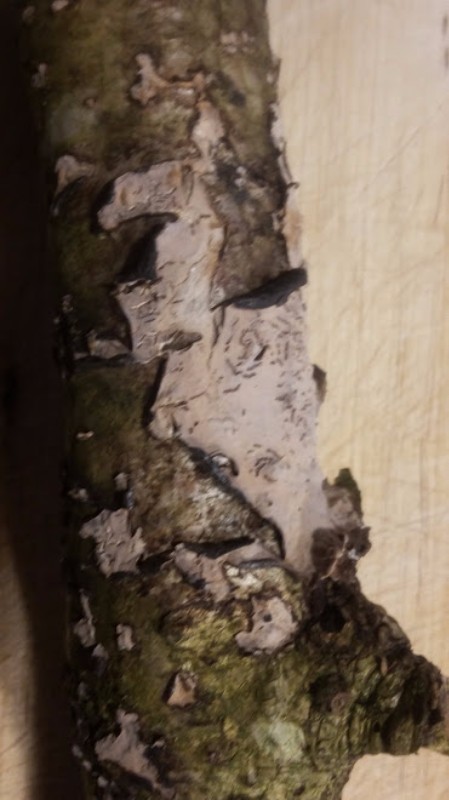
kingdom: Fungi
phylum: Basidiomycota
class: Agaricomycetes
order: Russulales
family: Peniophoraceae
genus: Peniophora
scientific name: Peniophora quercina
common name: ege-voksskind
